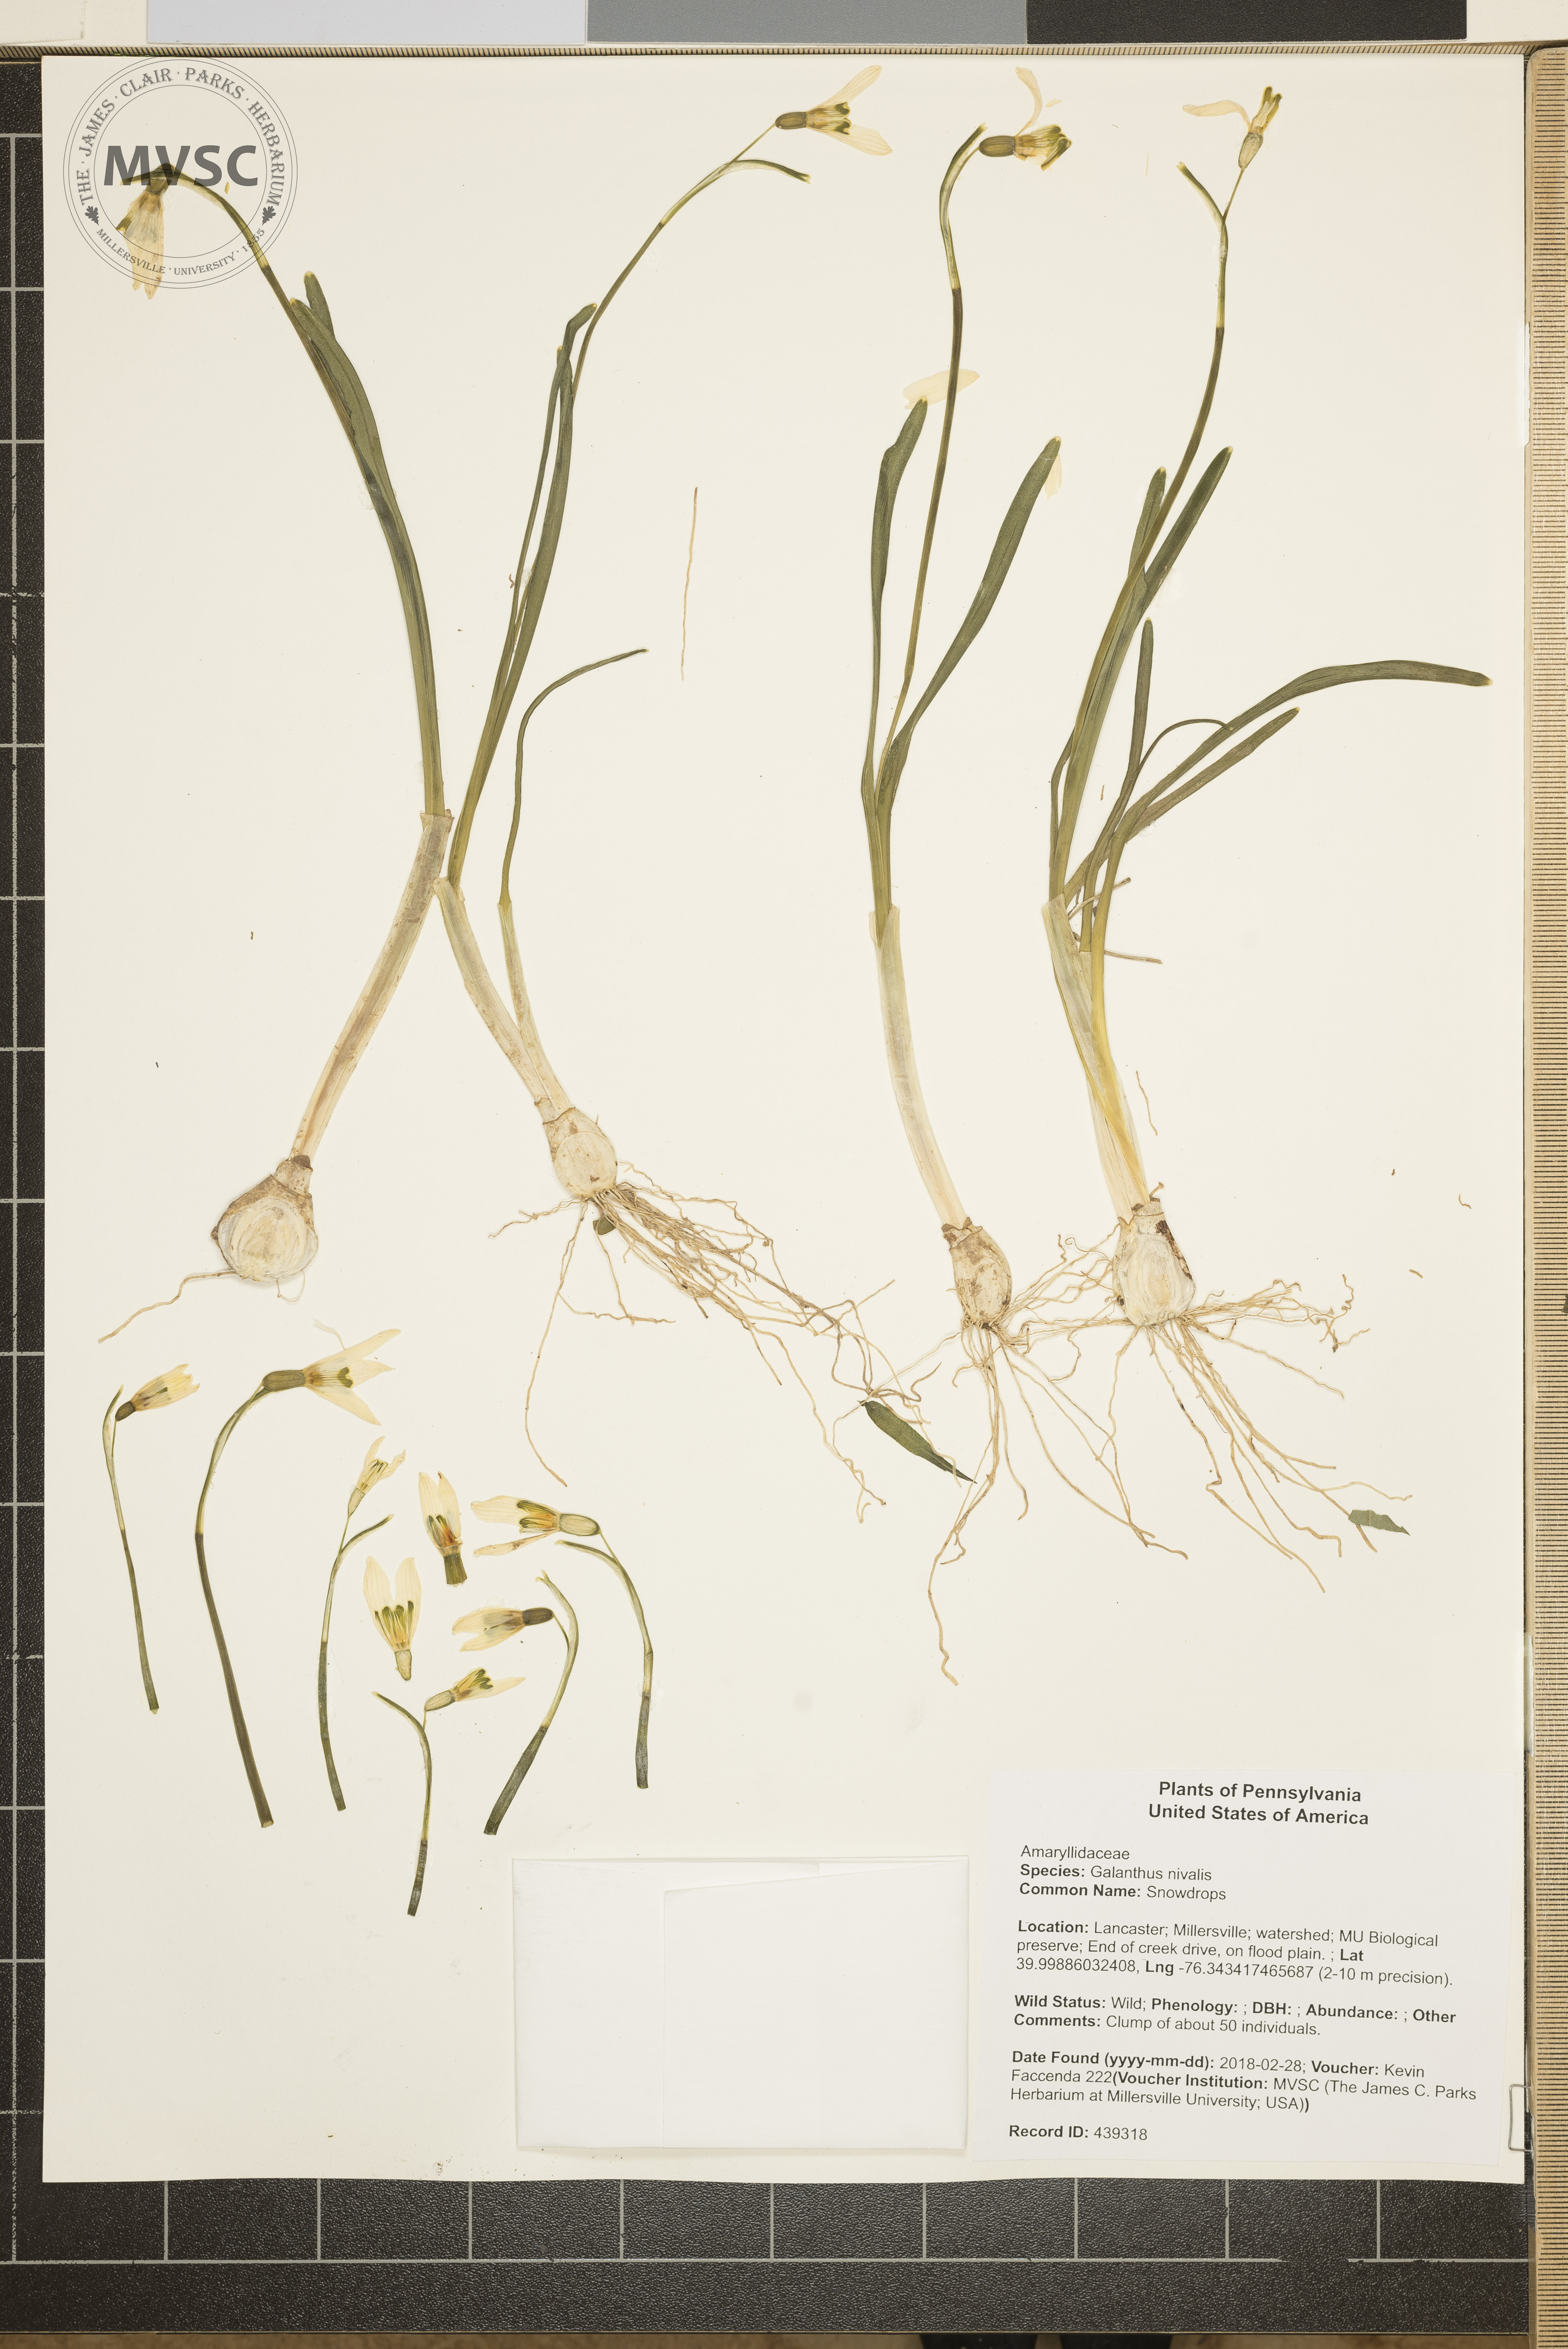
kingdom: Plantae
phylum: Tracheophyta
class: Liliopsida
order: Asparagales
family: Amaryllidaceae
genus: Galanthus
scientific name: Galanthus nivalis
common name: Snowdrops
